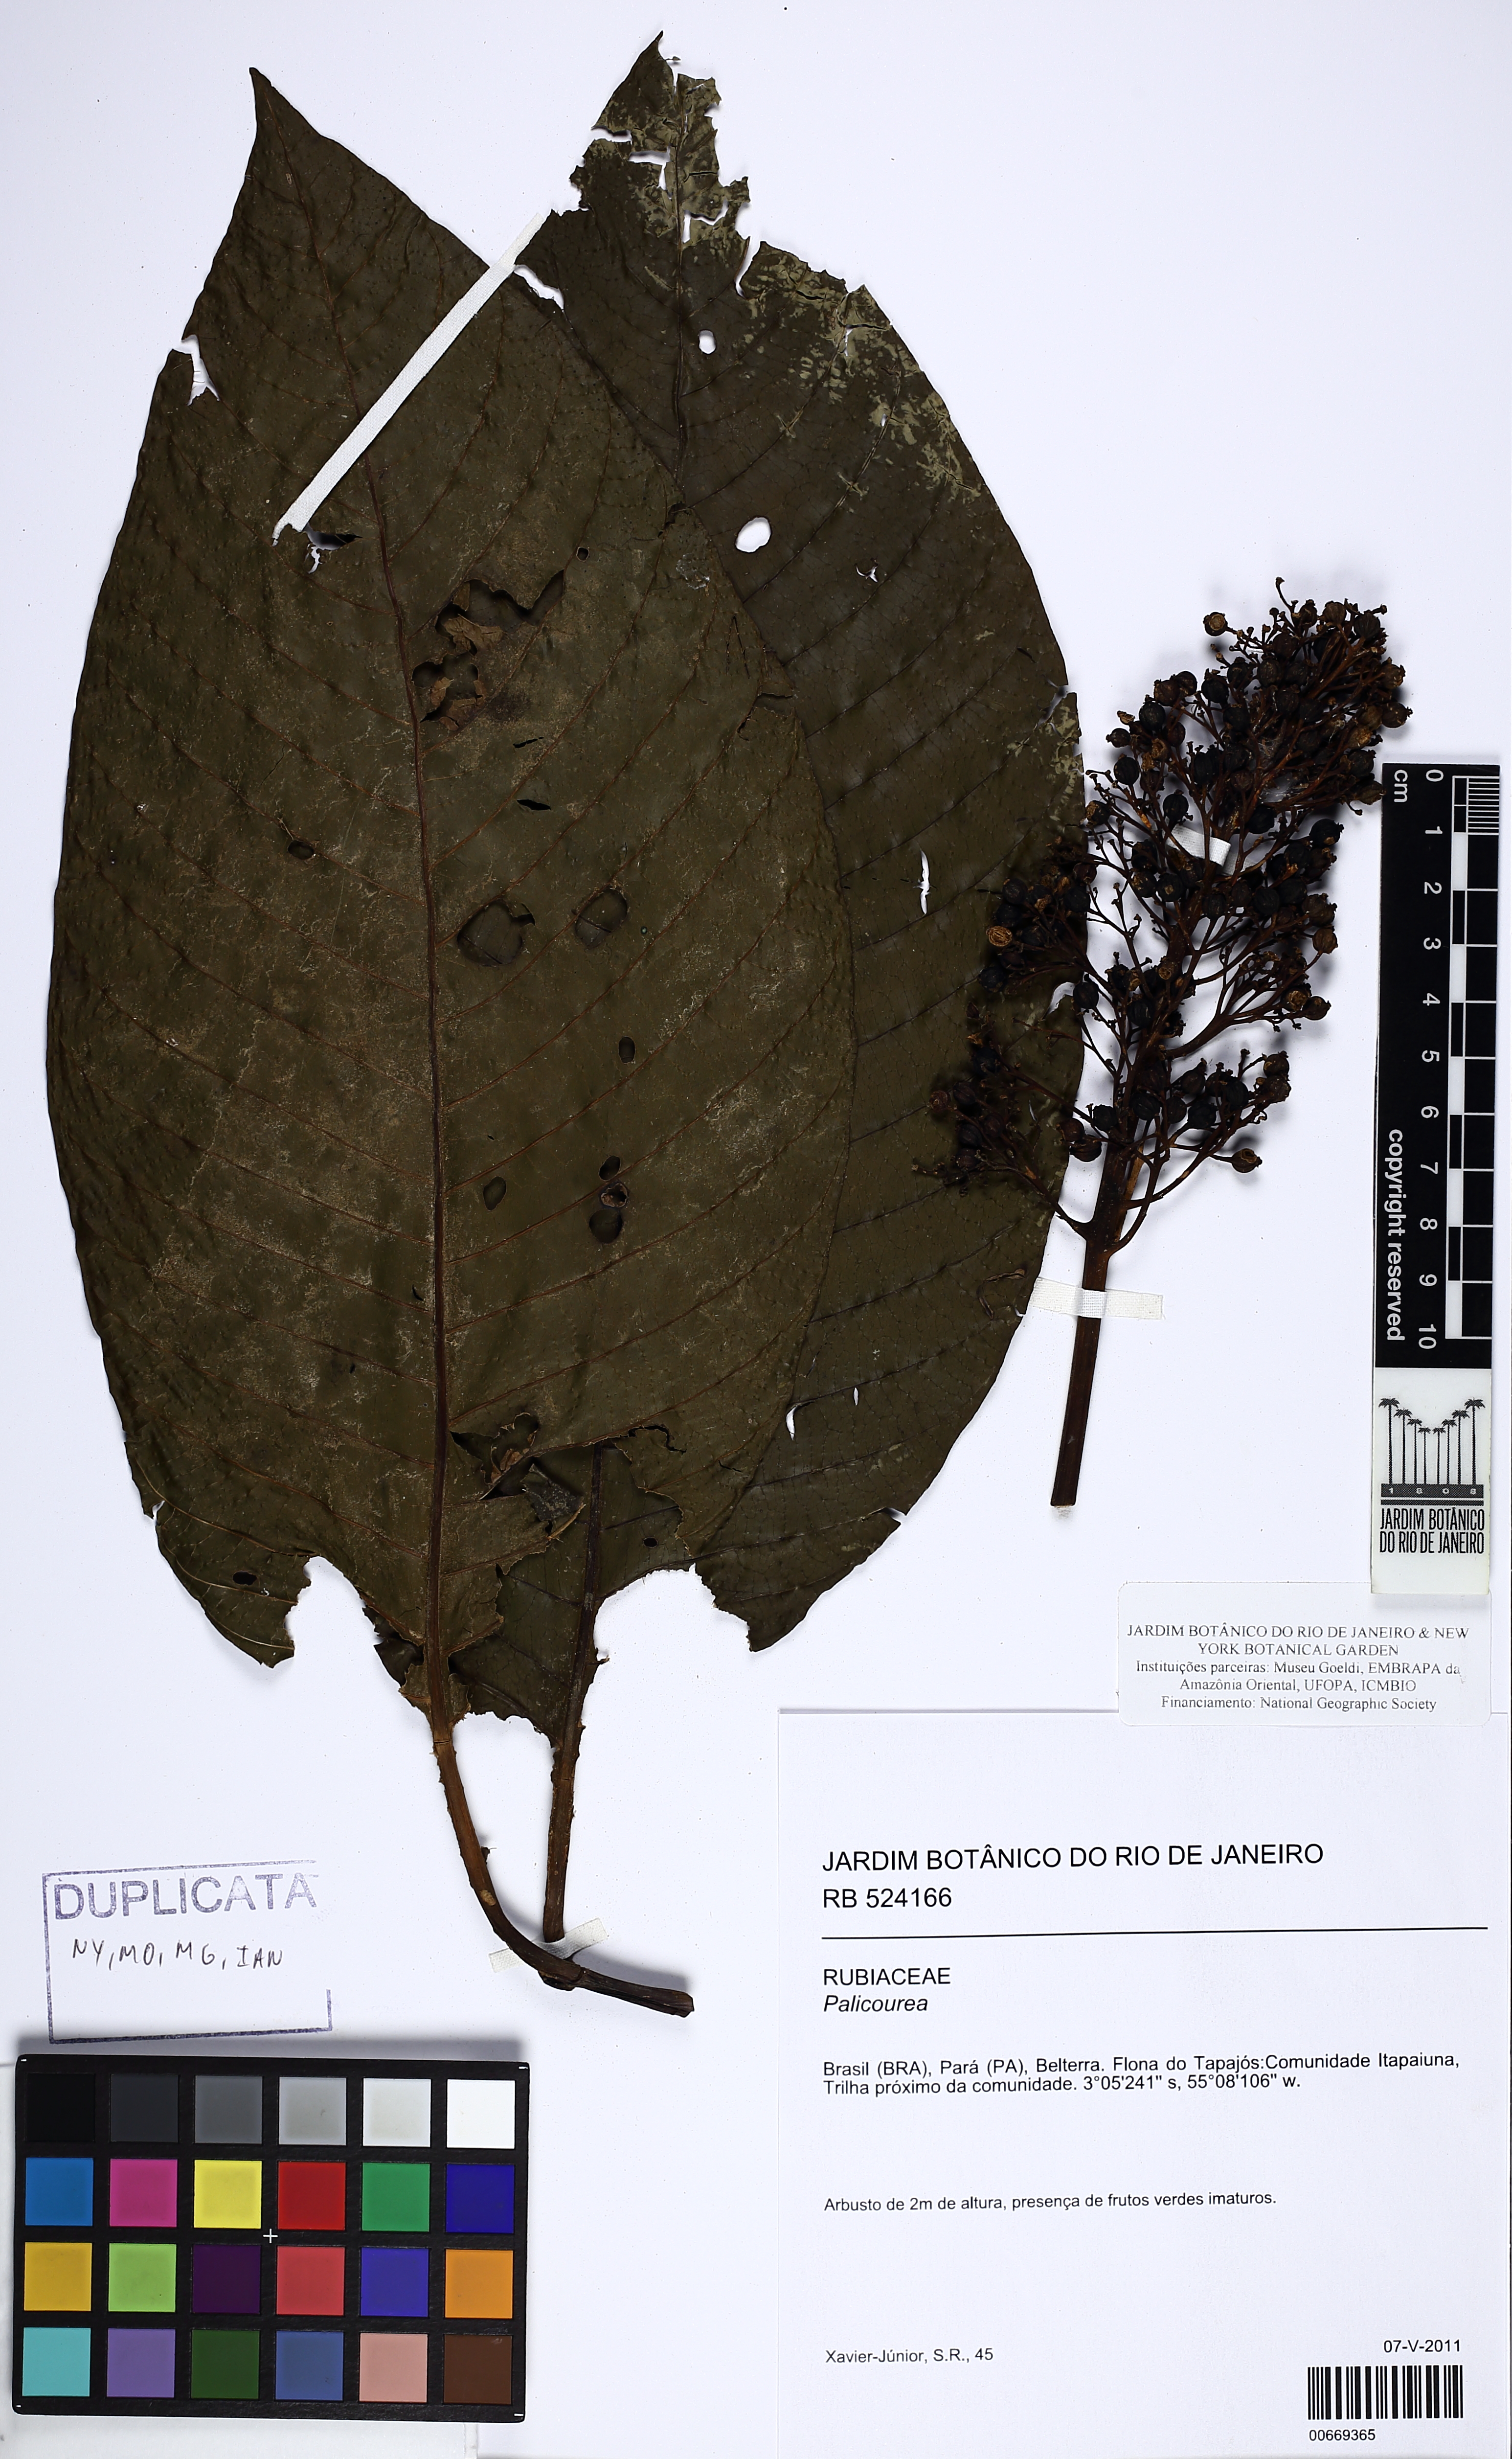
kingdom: Plantae
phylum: Tracheophyta
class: Magnoliopsida
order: Gentianales
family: Rubiaceae
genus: Palicourea
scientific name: Palicourea
